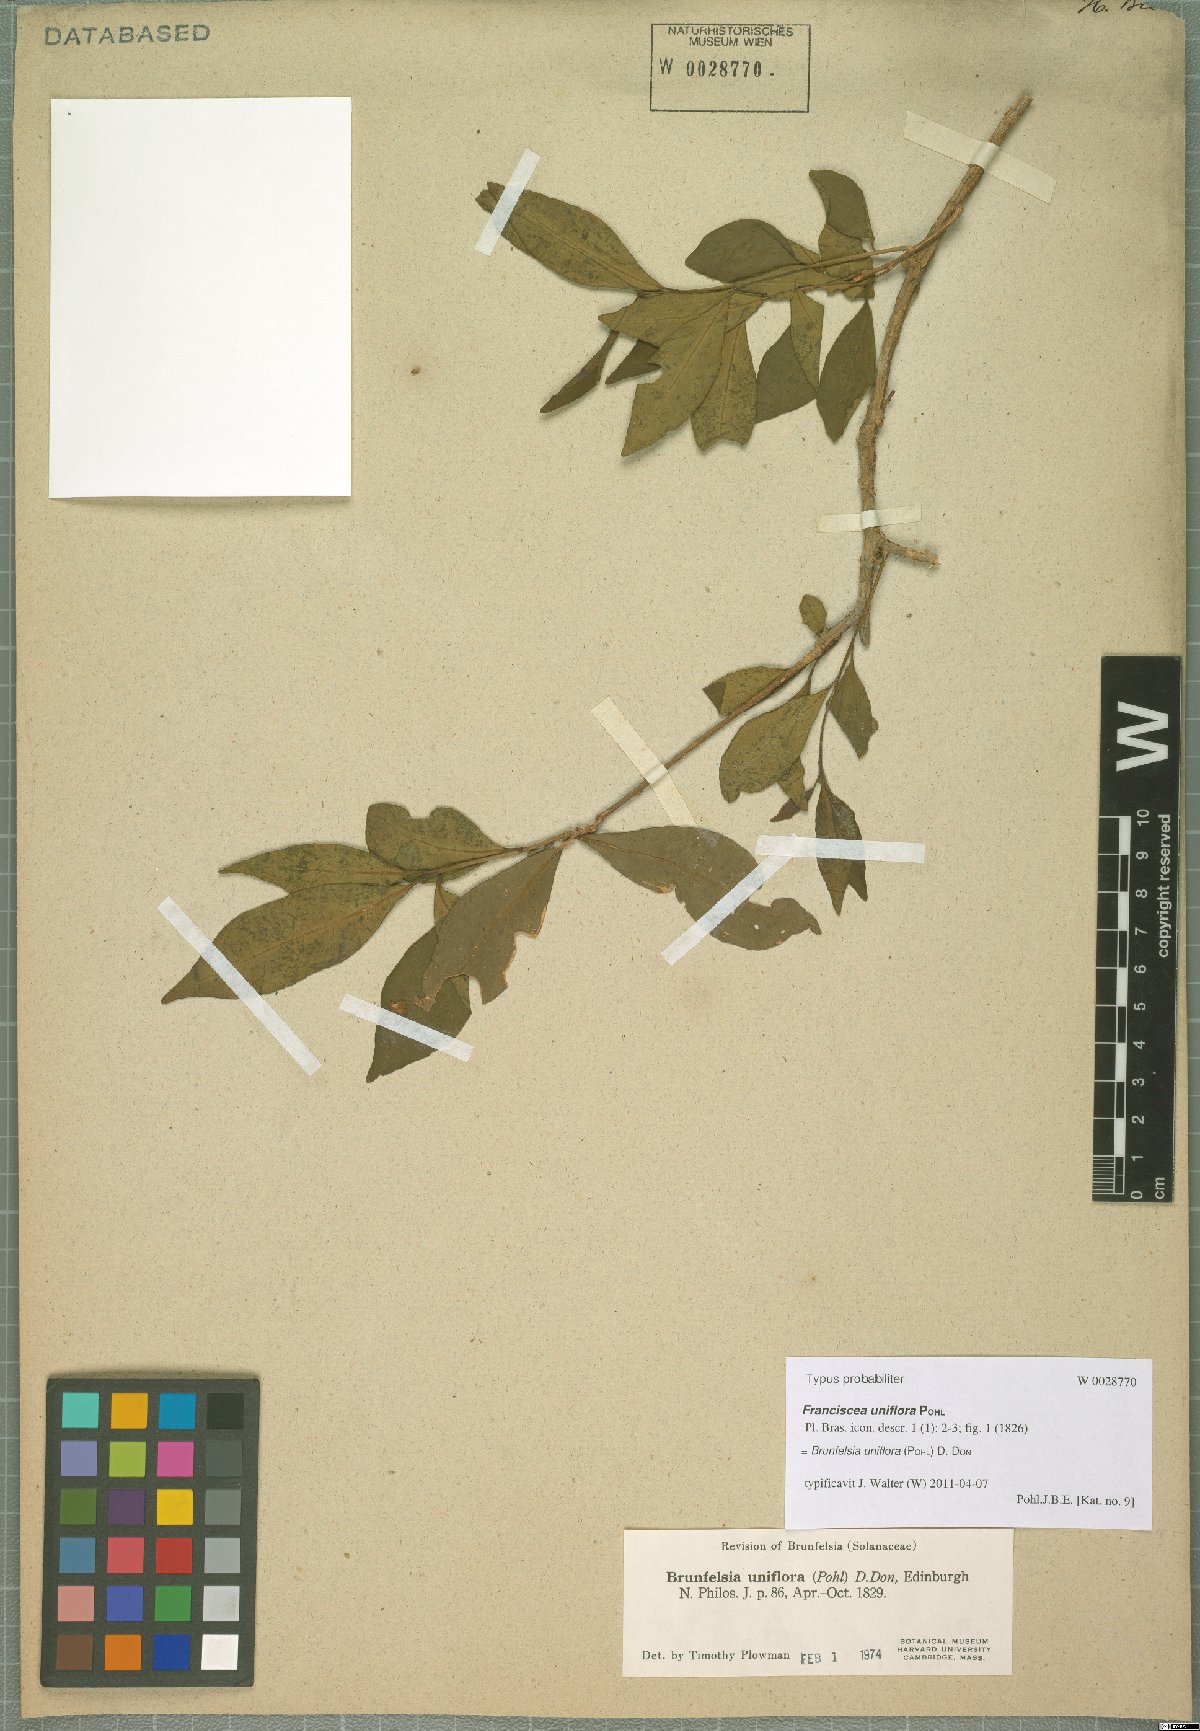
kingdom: Plantae
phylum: Tracheophyta
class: Magnoliopsida
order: Solanales
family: Solanaceae
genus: Brunfelsia
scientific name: Brunfelsia uniflora
